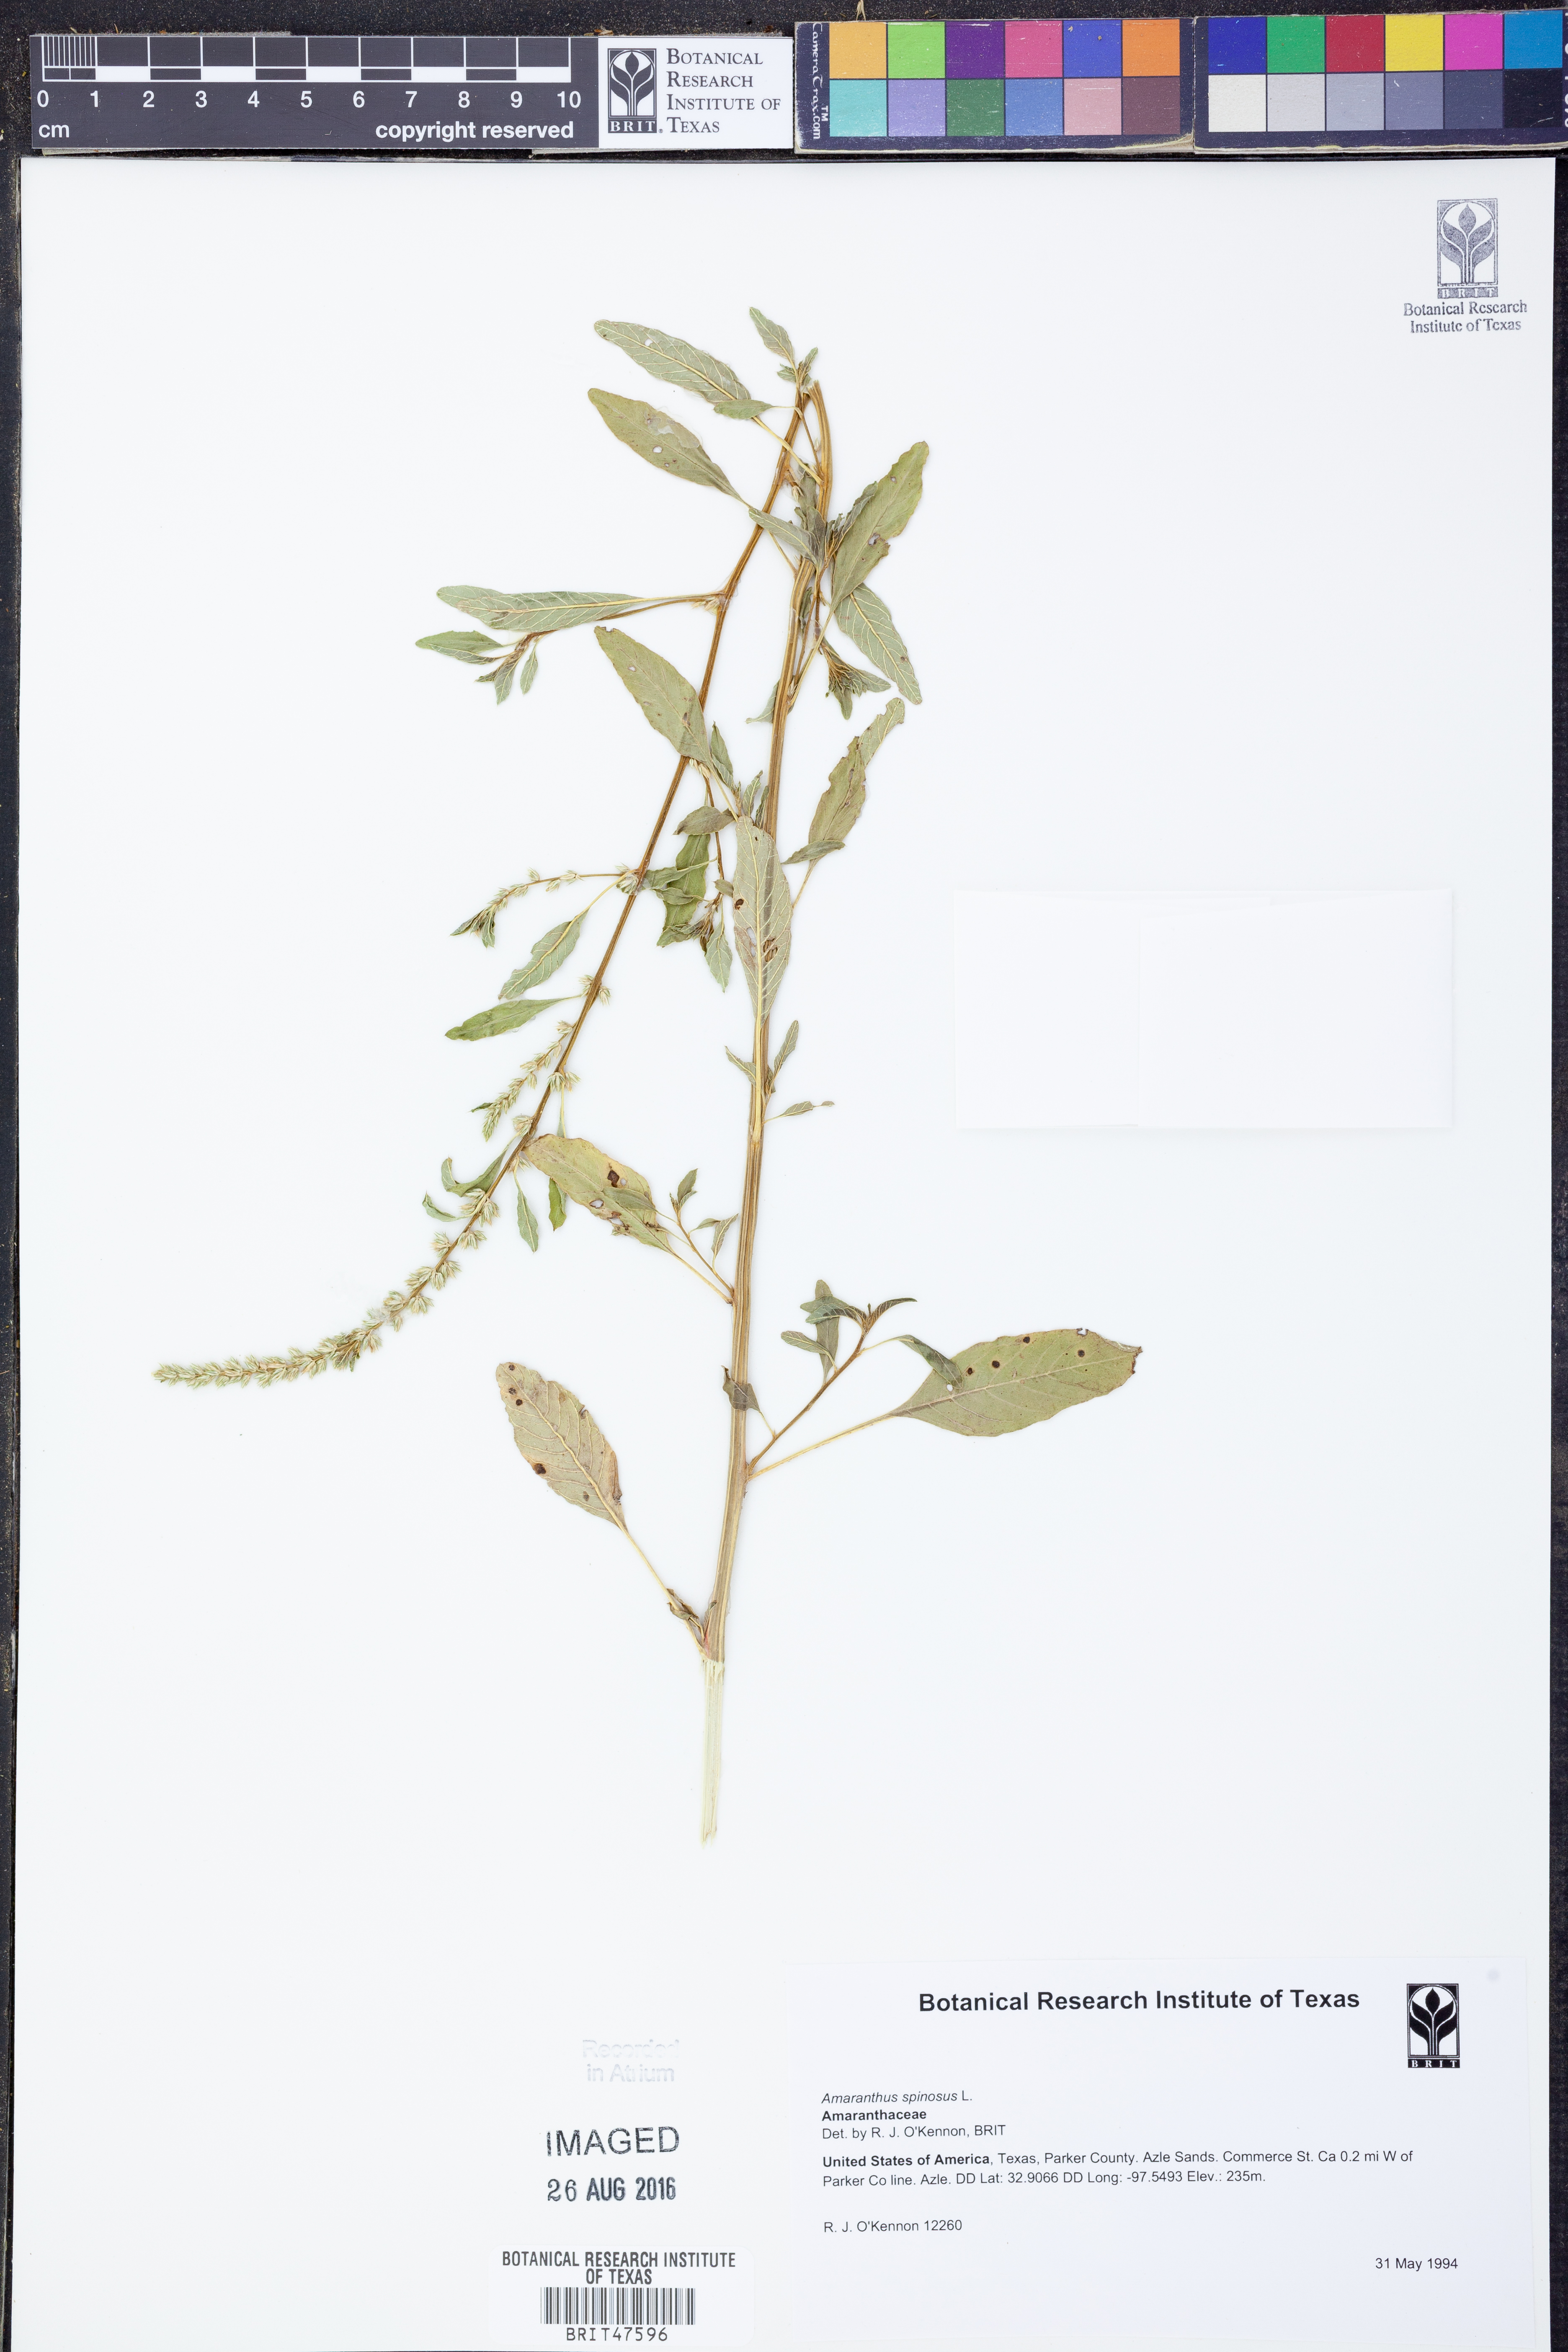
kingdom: Plantae
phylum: Tracheophyta
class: Magnoliopsida
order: Caryophyllales
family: Amaranthaceae
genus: Amaranthus
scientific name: Amaranthus spinosus
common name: Spiny amaranth
